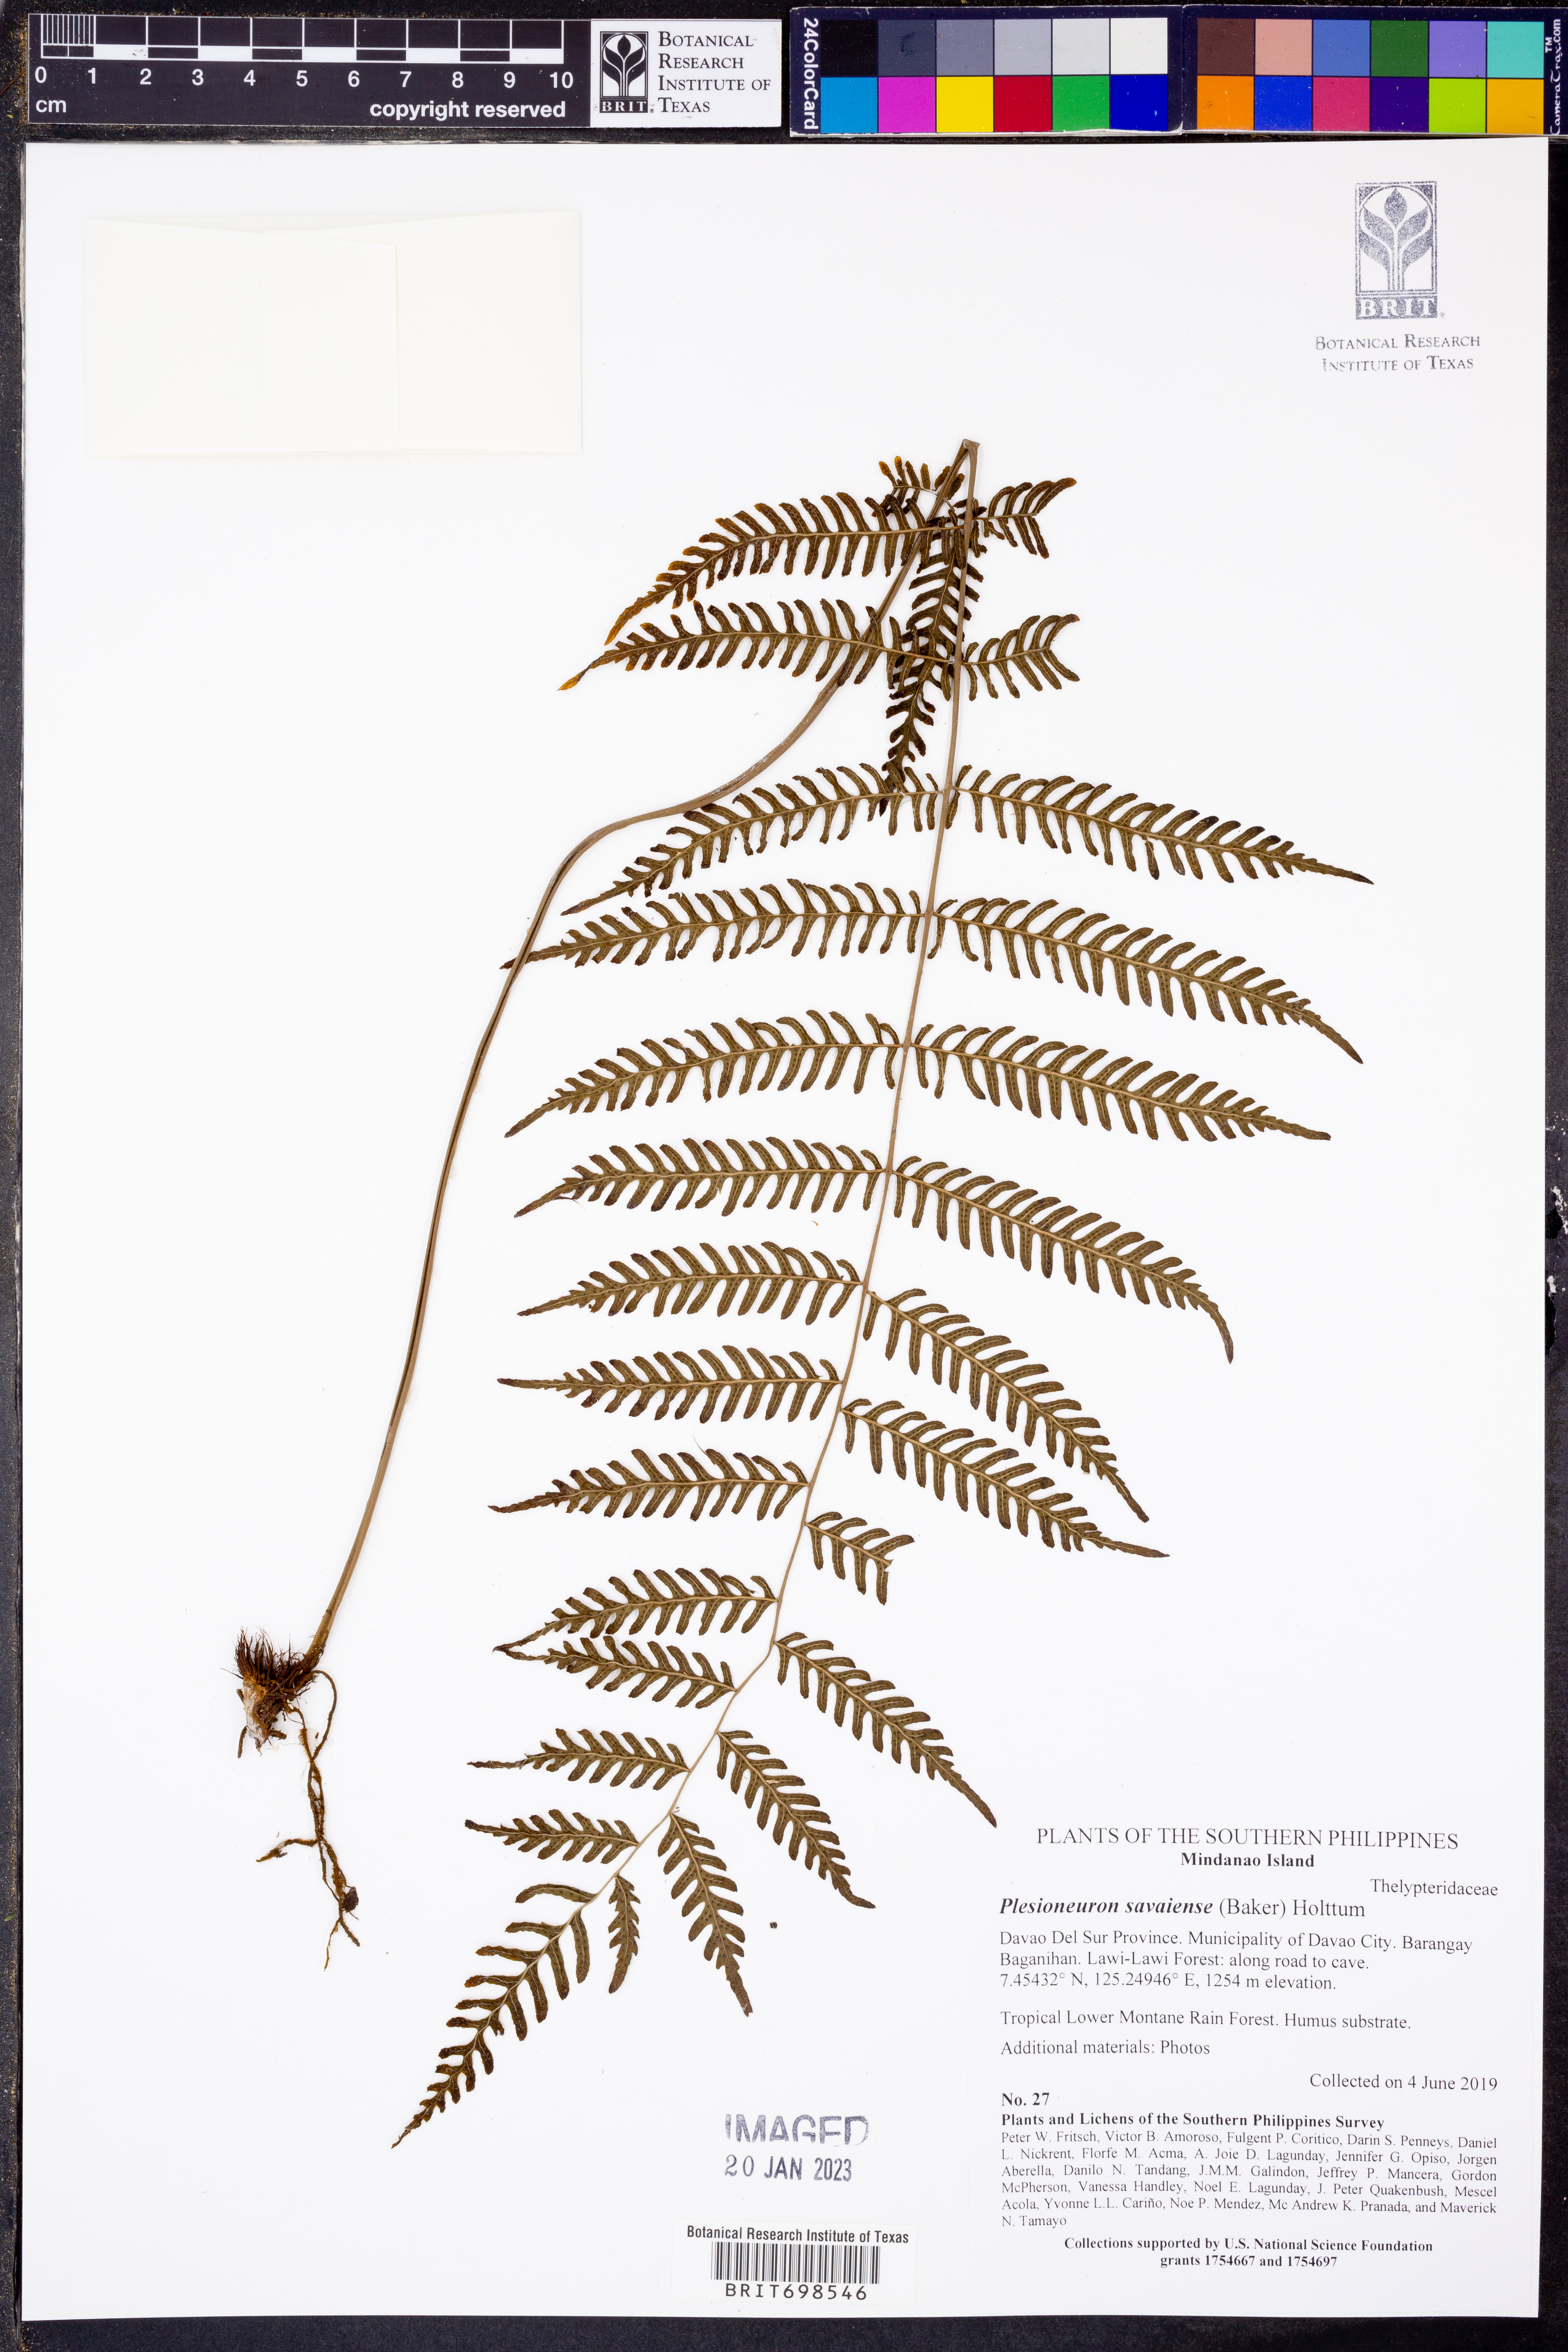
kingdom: Plantae
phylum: Tracheophyta
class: Polypodiopsida
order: Polypodiales
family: Thelypteridaceae
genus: Plesioneuron
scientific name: Plesioneuron savaiense
